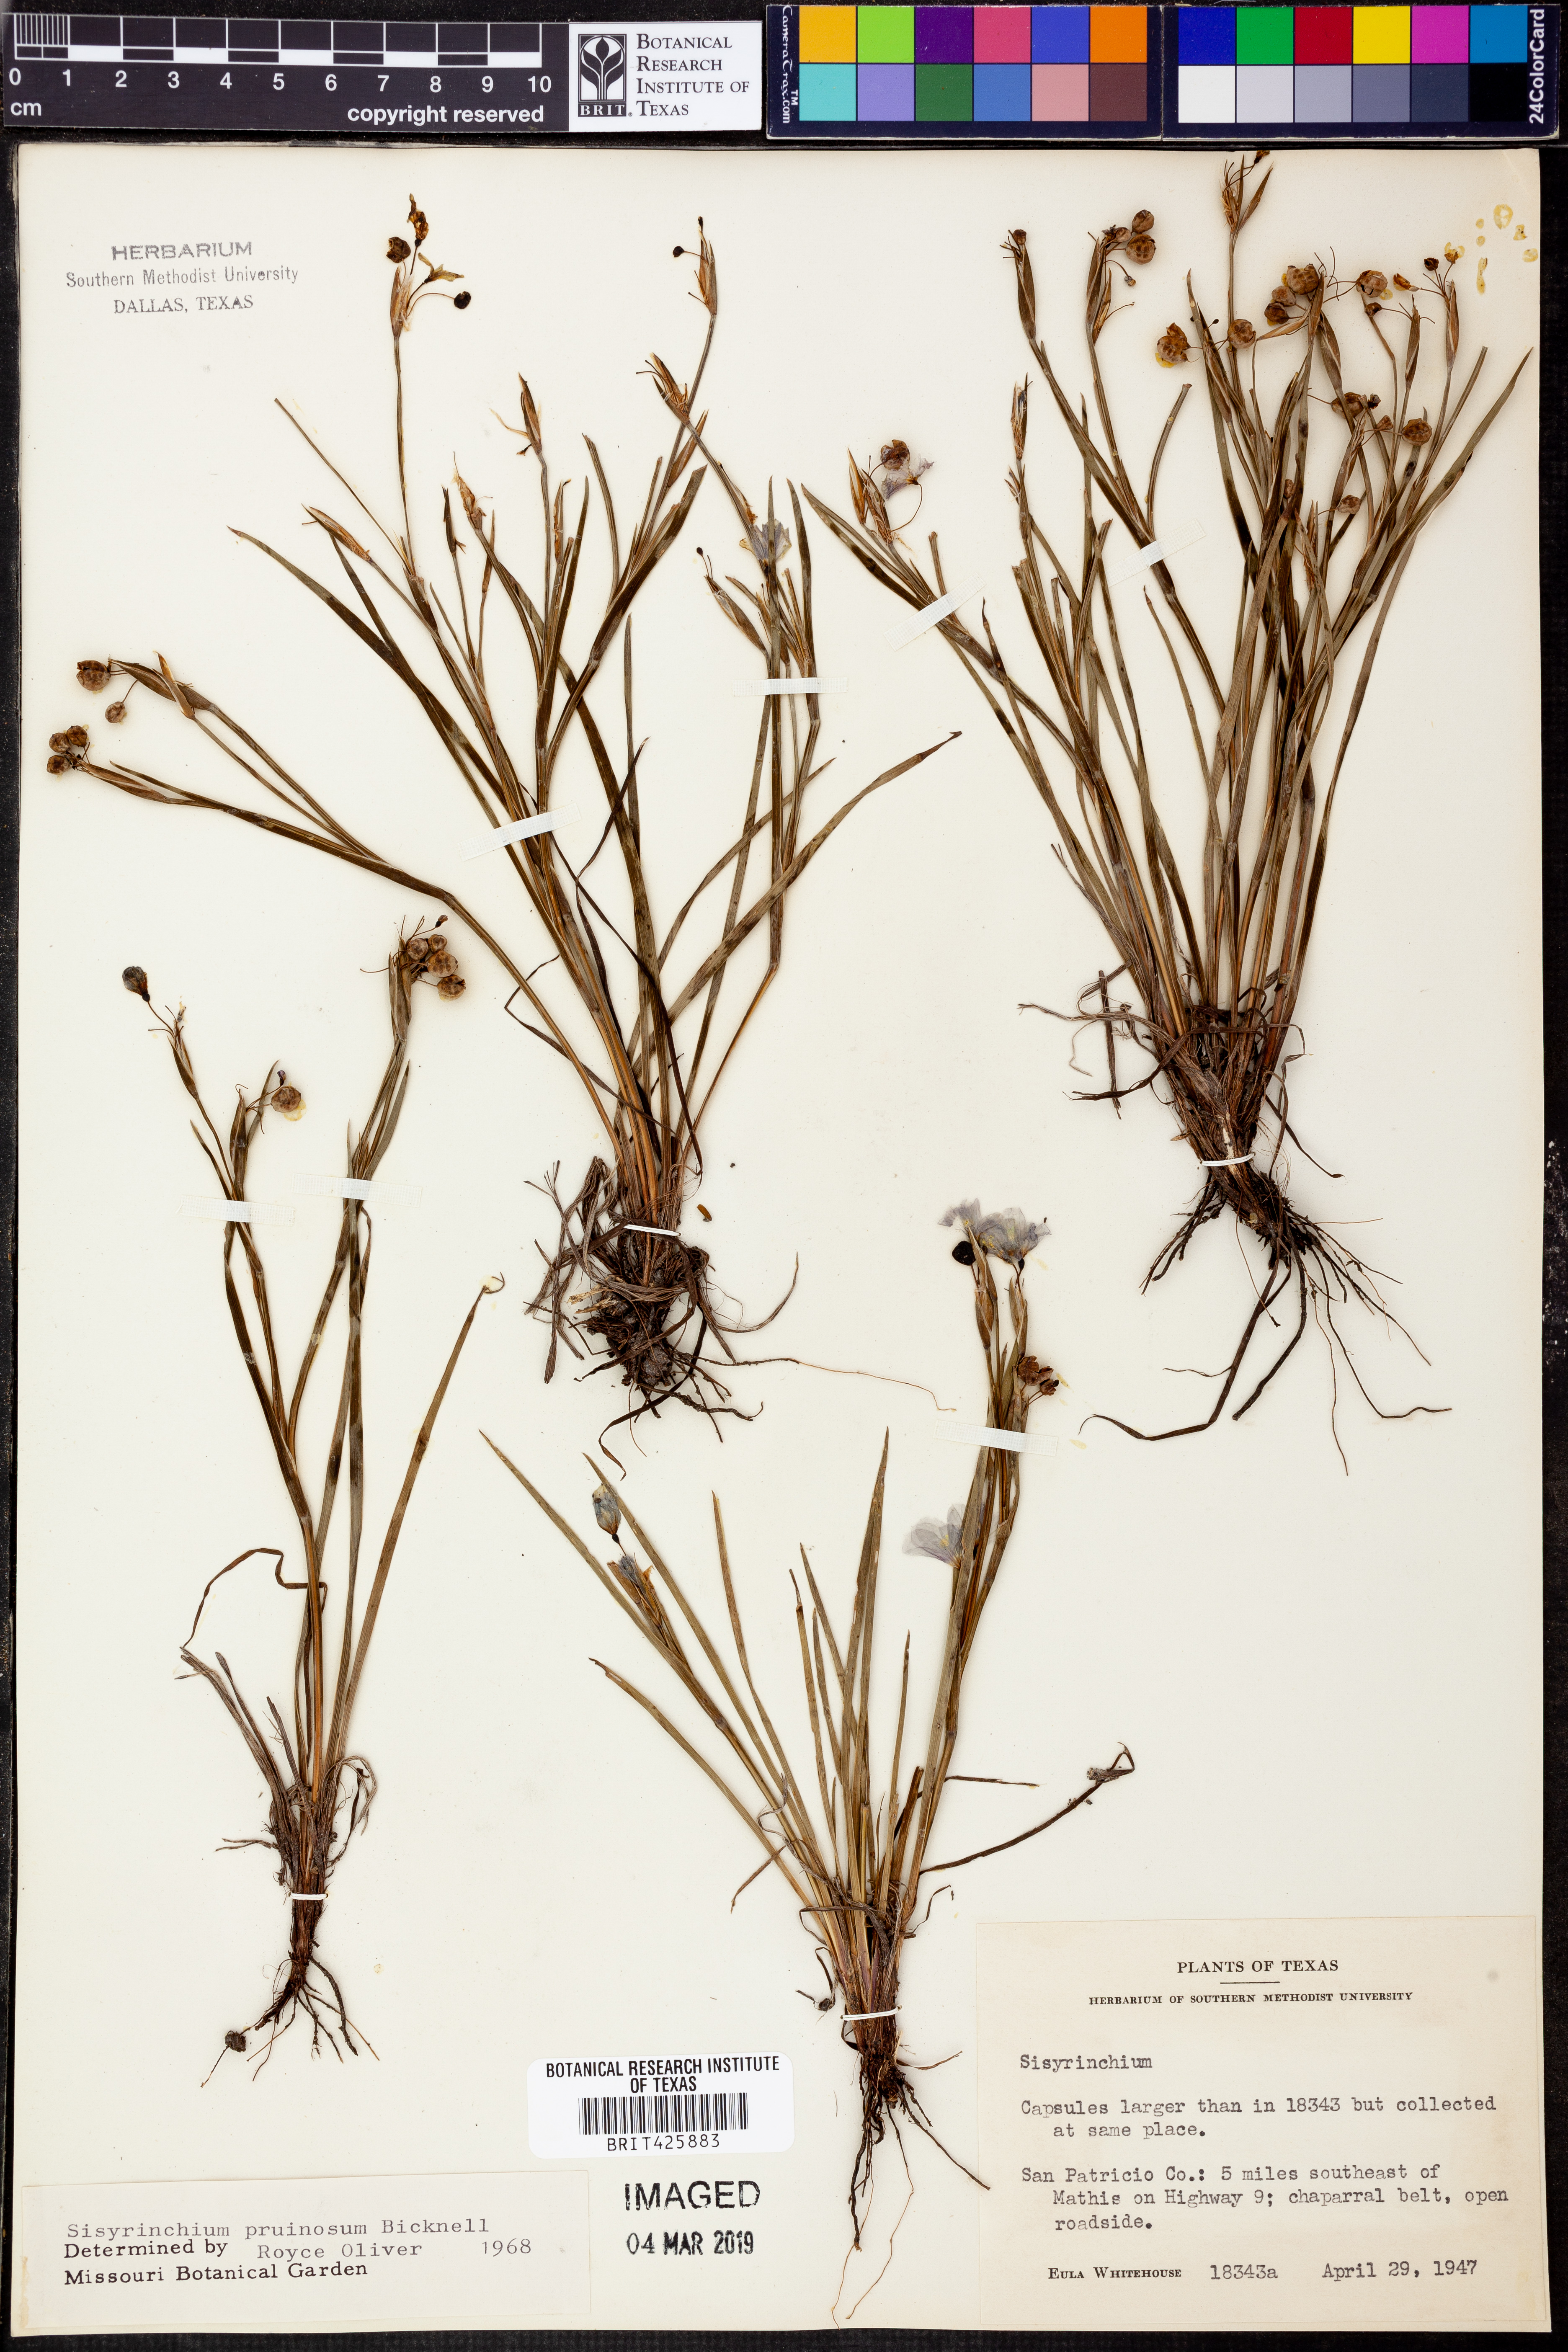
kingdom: Plantae
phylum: Tracheophyta
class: Liliopsida
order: Asparagales
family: Iridaceae
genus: Sisyrinchium
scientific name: Sisyrinchium pruinosum
